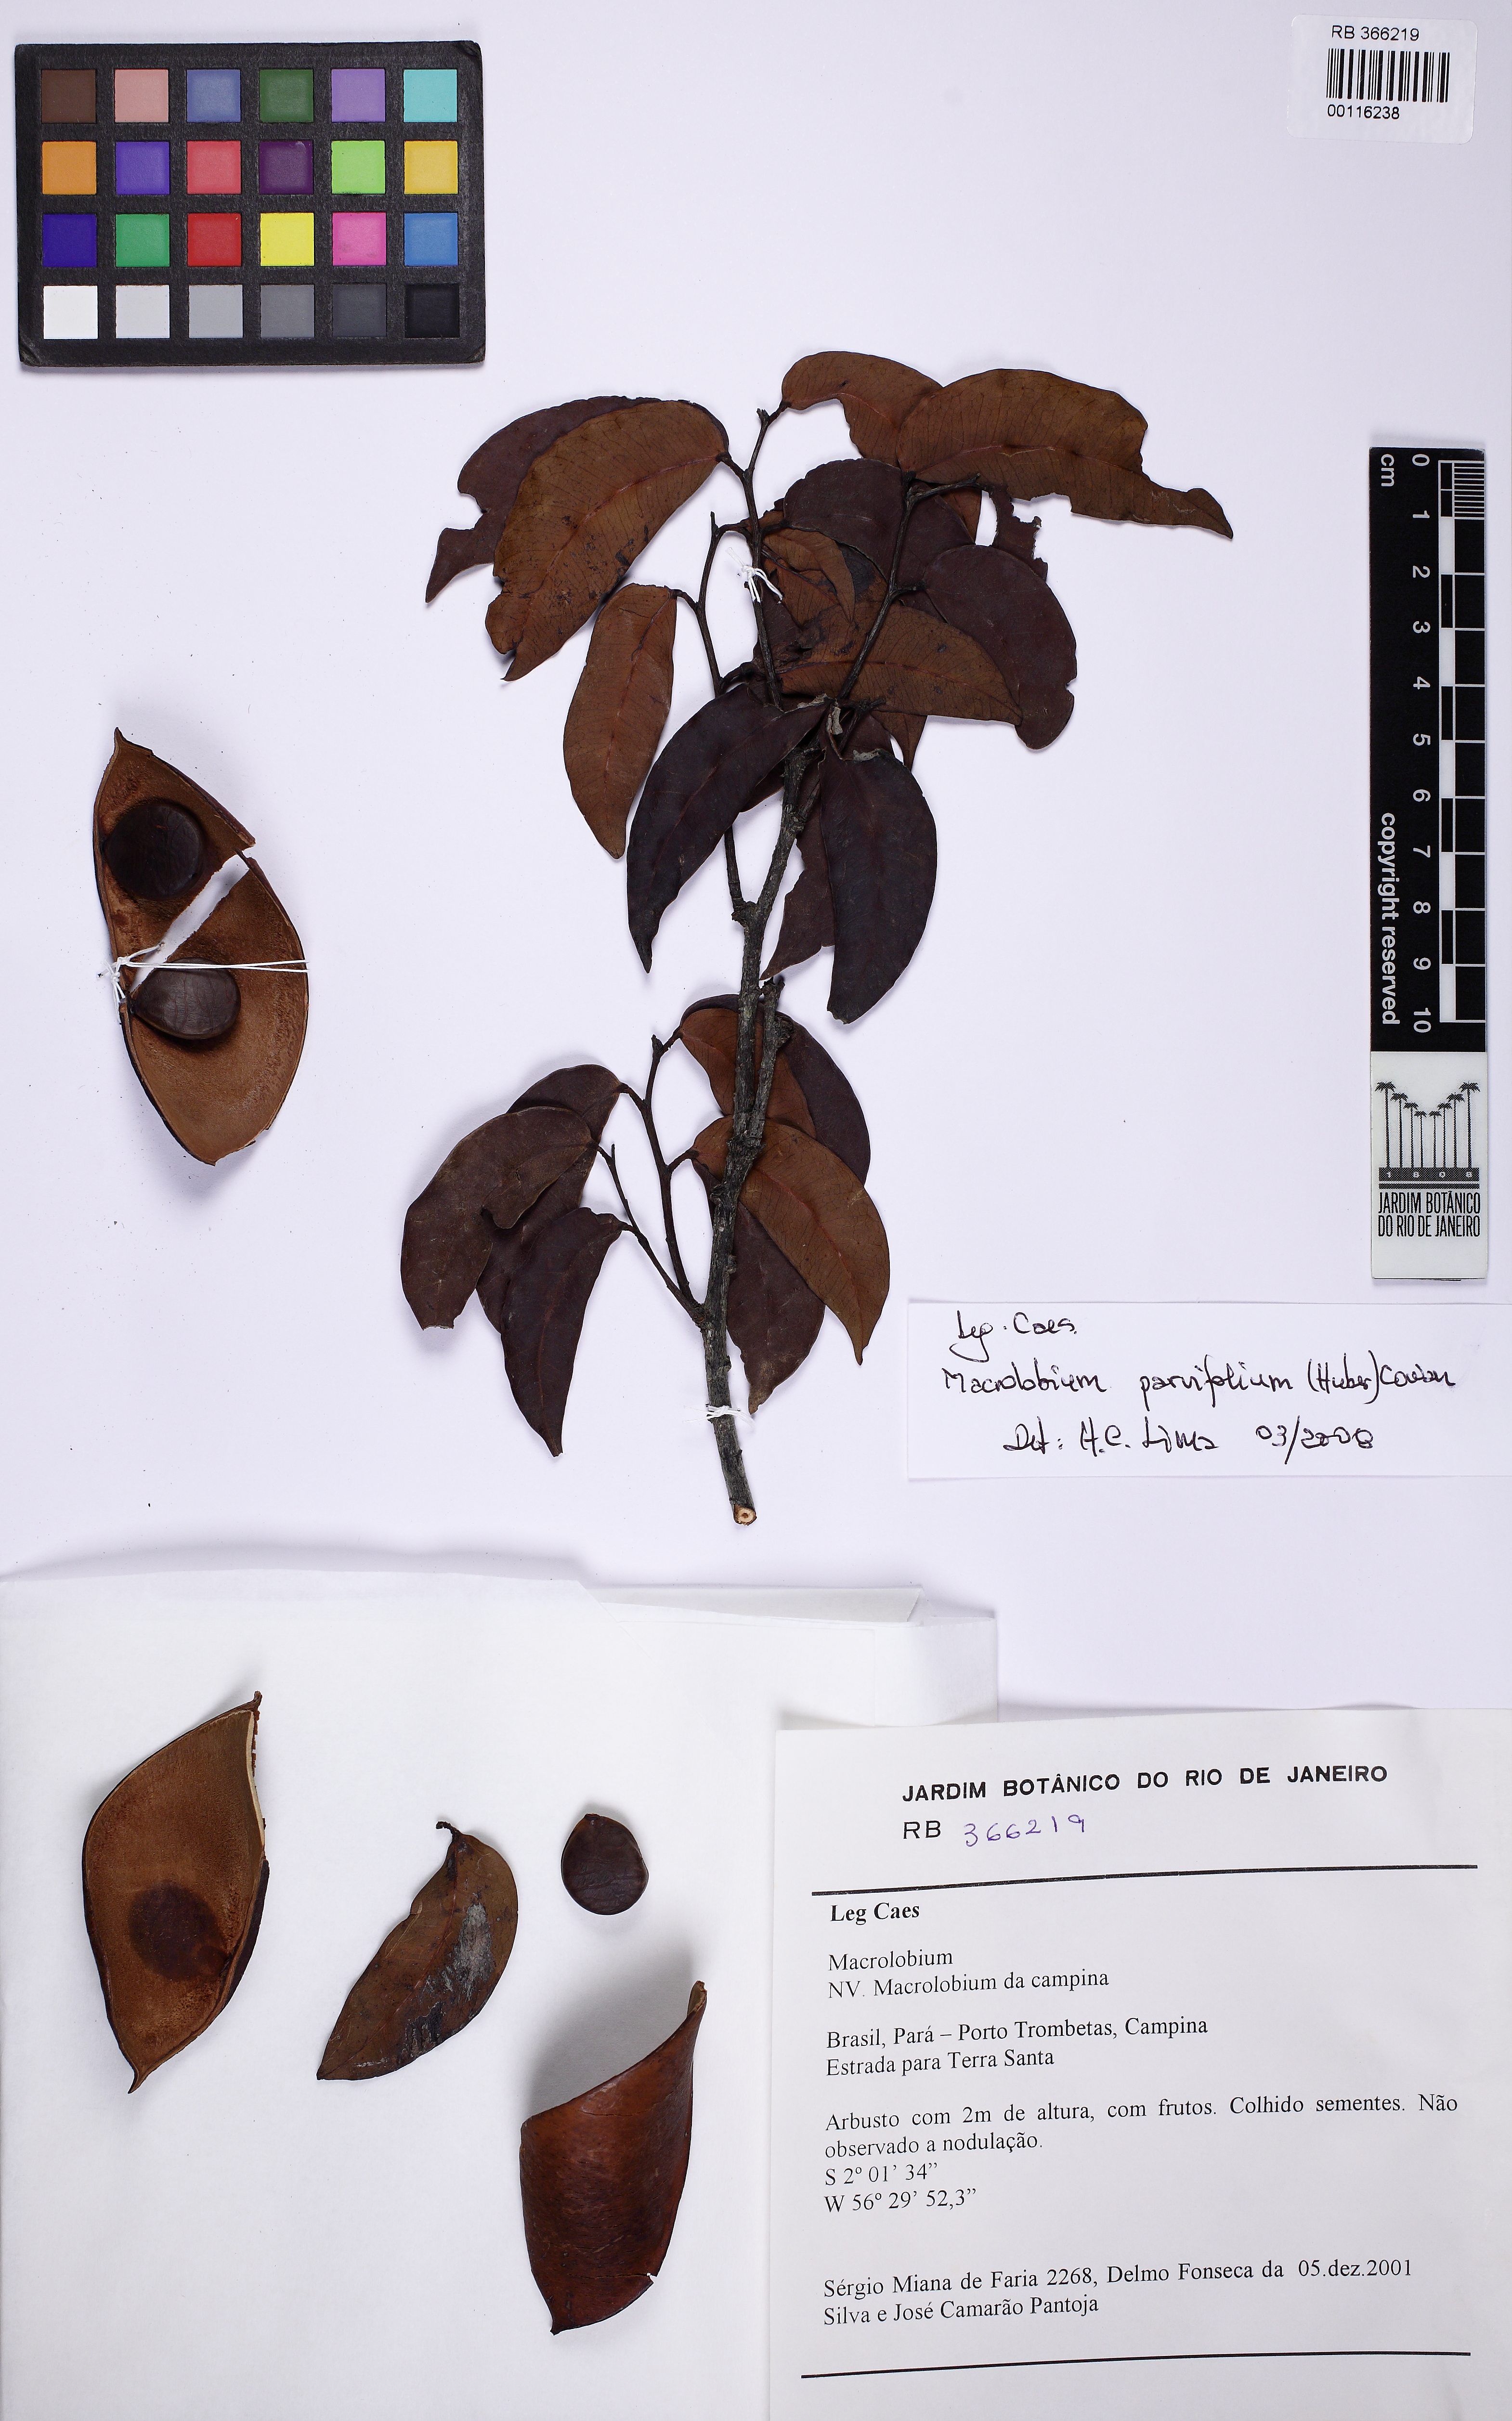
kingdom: Plantae
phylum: Tracheophyta
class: Magnoliopsida
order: Fabales
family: Fabaceae
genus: Macrolobium
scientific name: Macrolobium parvifolium
